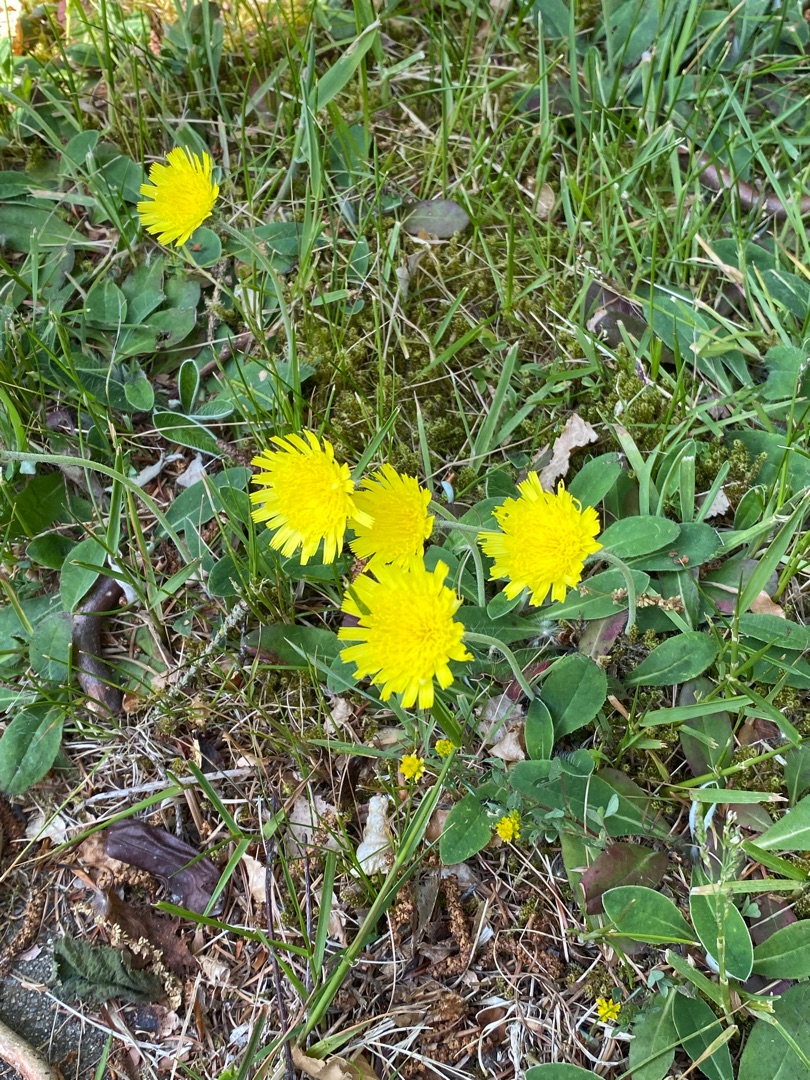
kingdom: Plantae
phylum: Tracheophyta
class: Magnoliopsida
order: Asterales
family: Asteraceae
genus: Pilosella
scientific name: Pilosella officinarum
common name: Håret høgeurt
